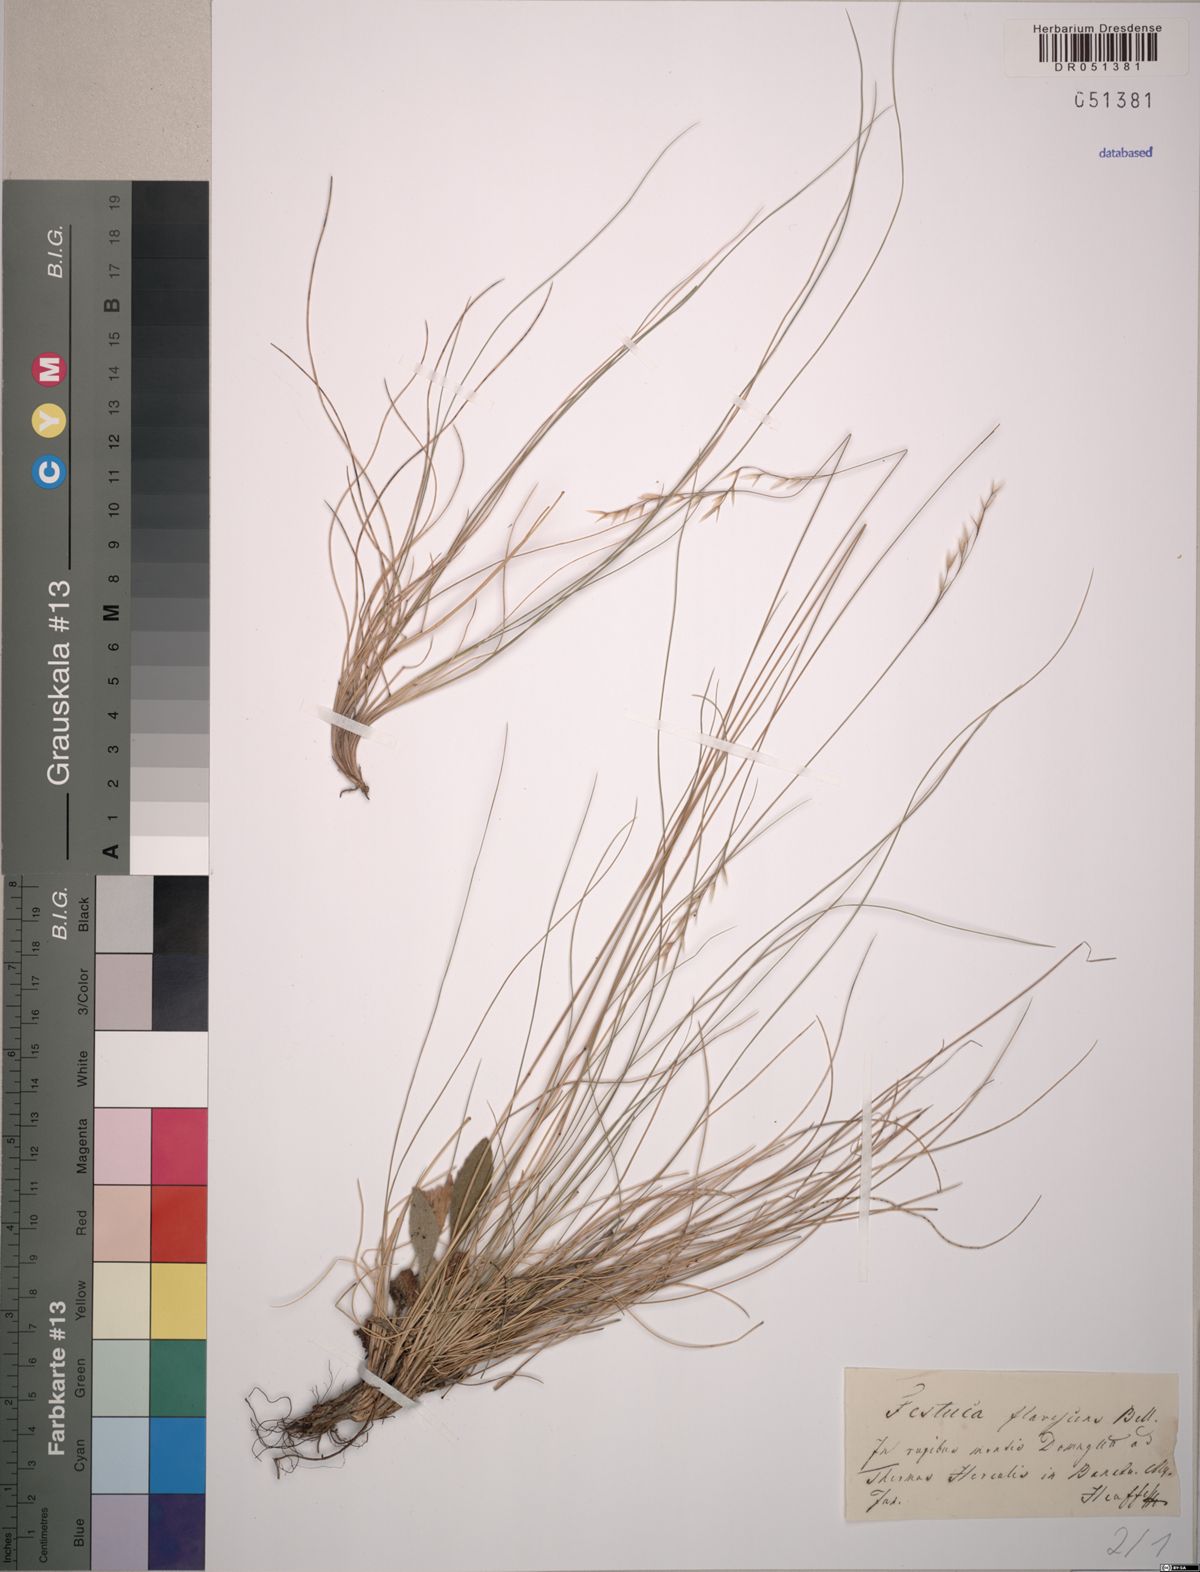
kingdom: Plantae
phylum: Tracheophyta
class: Liliopsida
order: Poales
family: Poaceae
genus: Festuca
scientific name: Festuca flavescens
